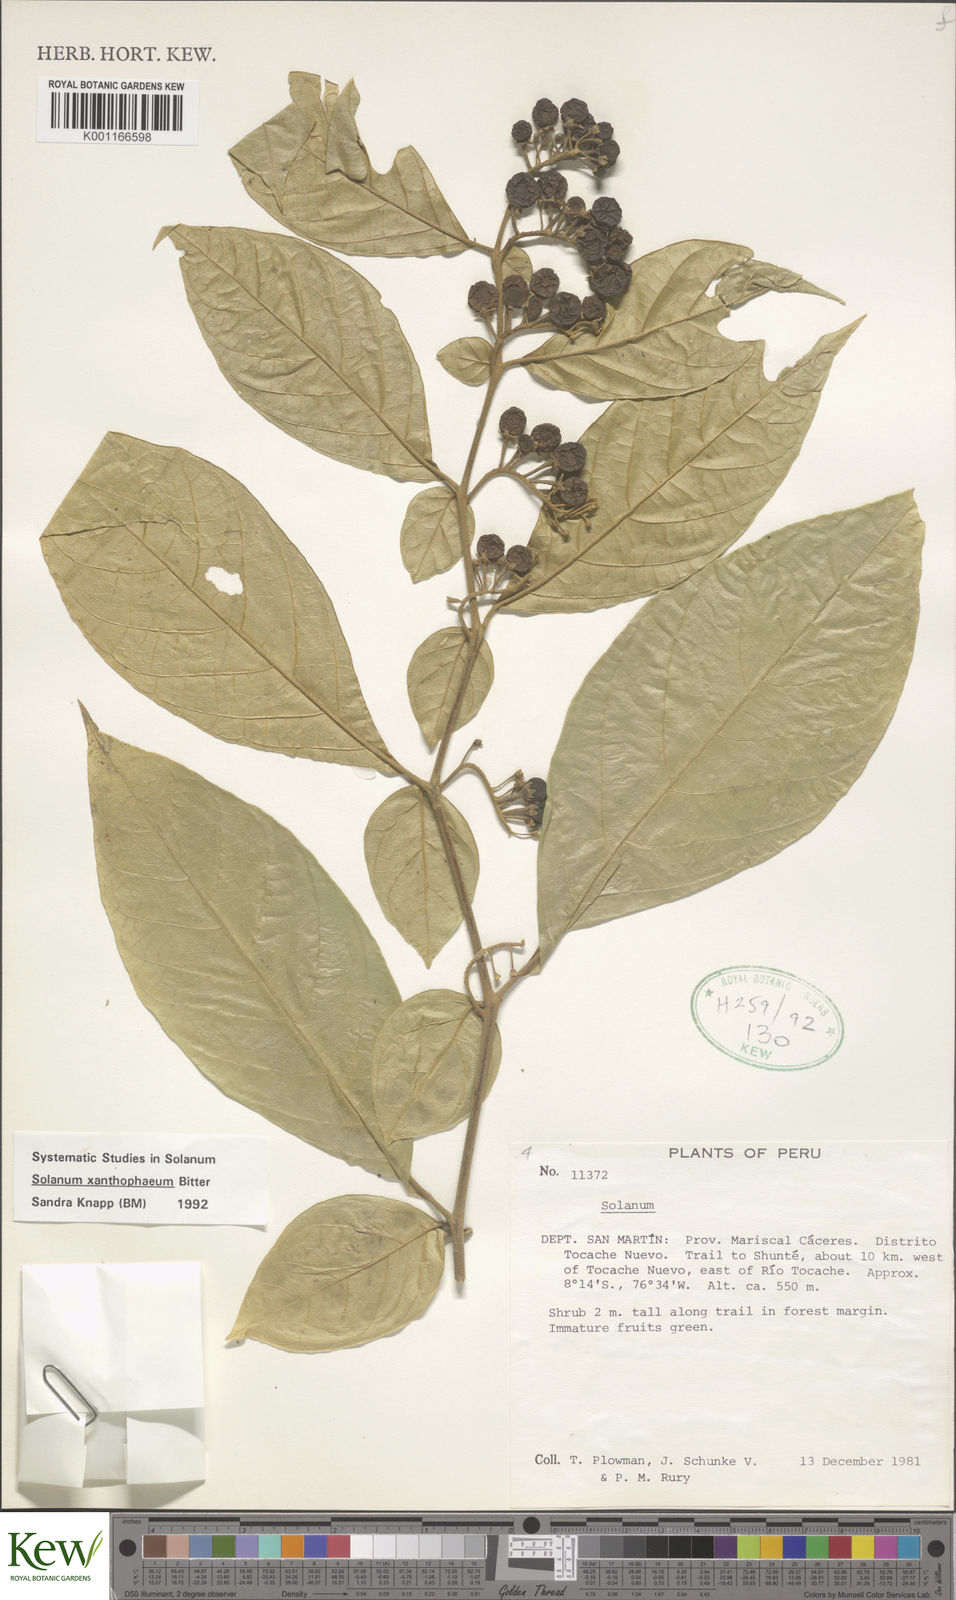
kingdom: Plantae
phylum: Tracheophyta
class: Magnoliopsida
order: Solanales
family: Solanaceae
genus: Solanum
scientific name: Solanum xanthophaeum
